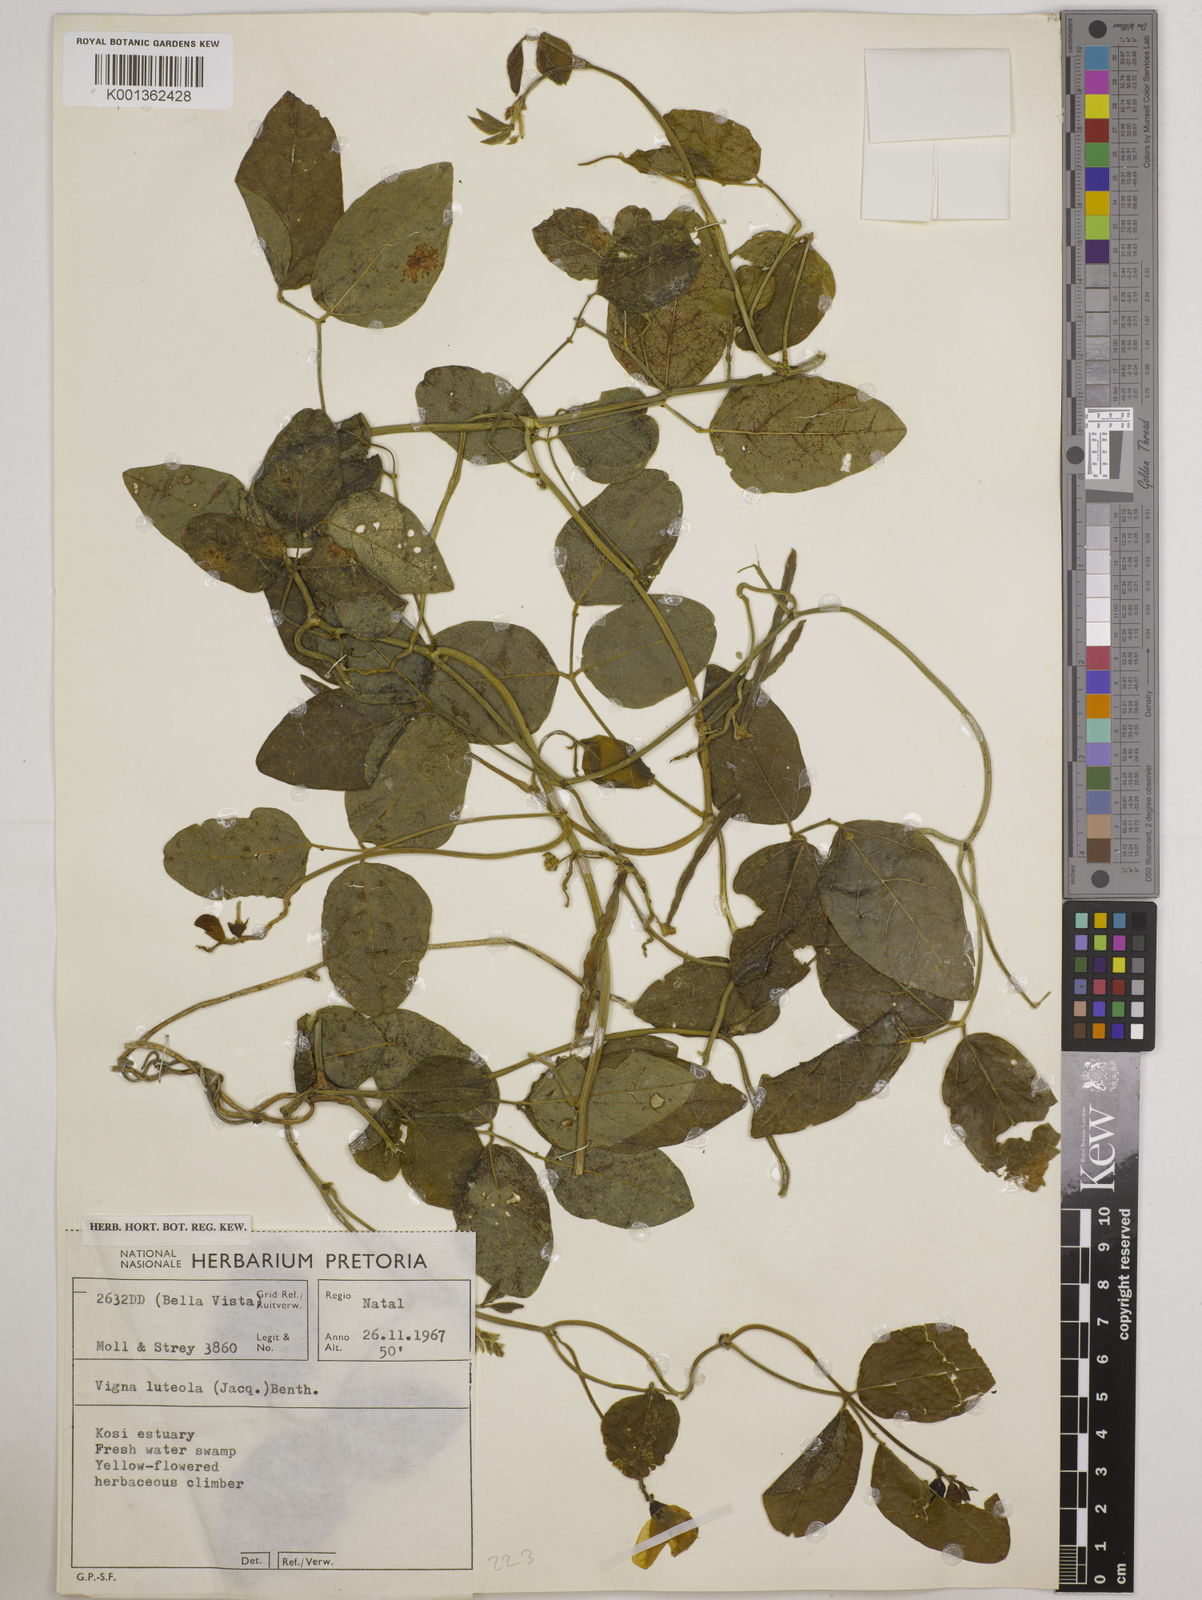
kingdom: Plantae
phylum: Tracheophyta
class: Magnoliopsida
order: Fabales
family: Fabaceae
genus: Vigna
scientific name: Vigna luteola
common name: Hairypod cowpea
